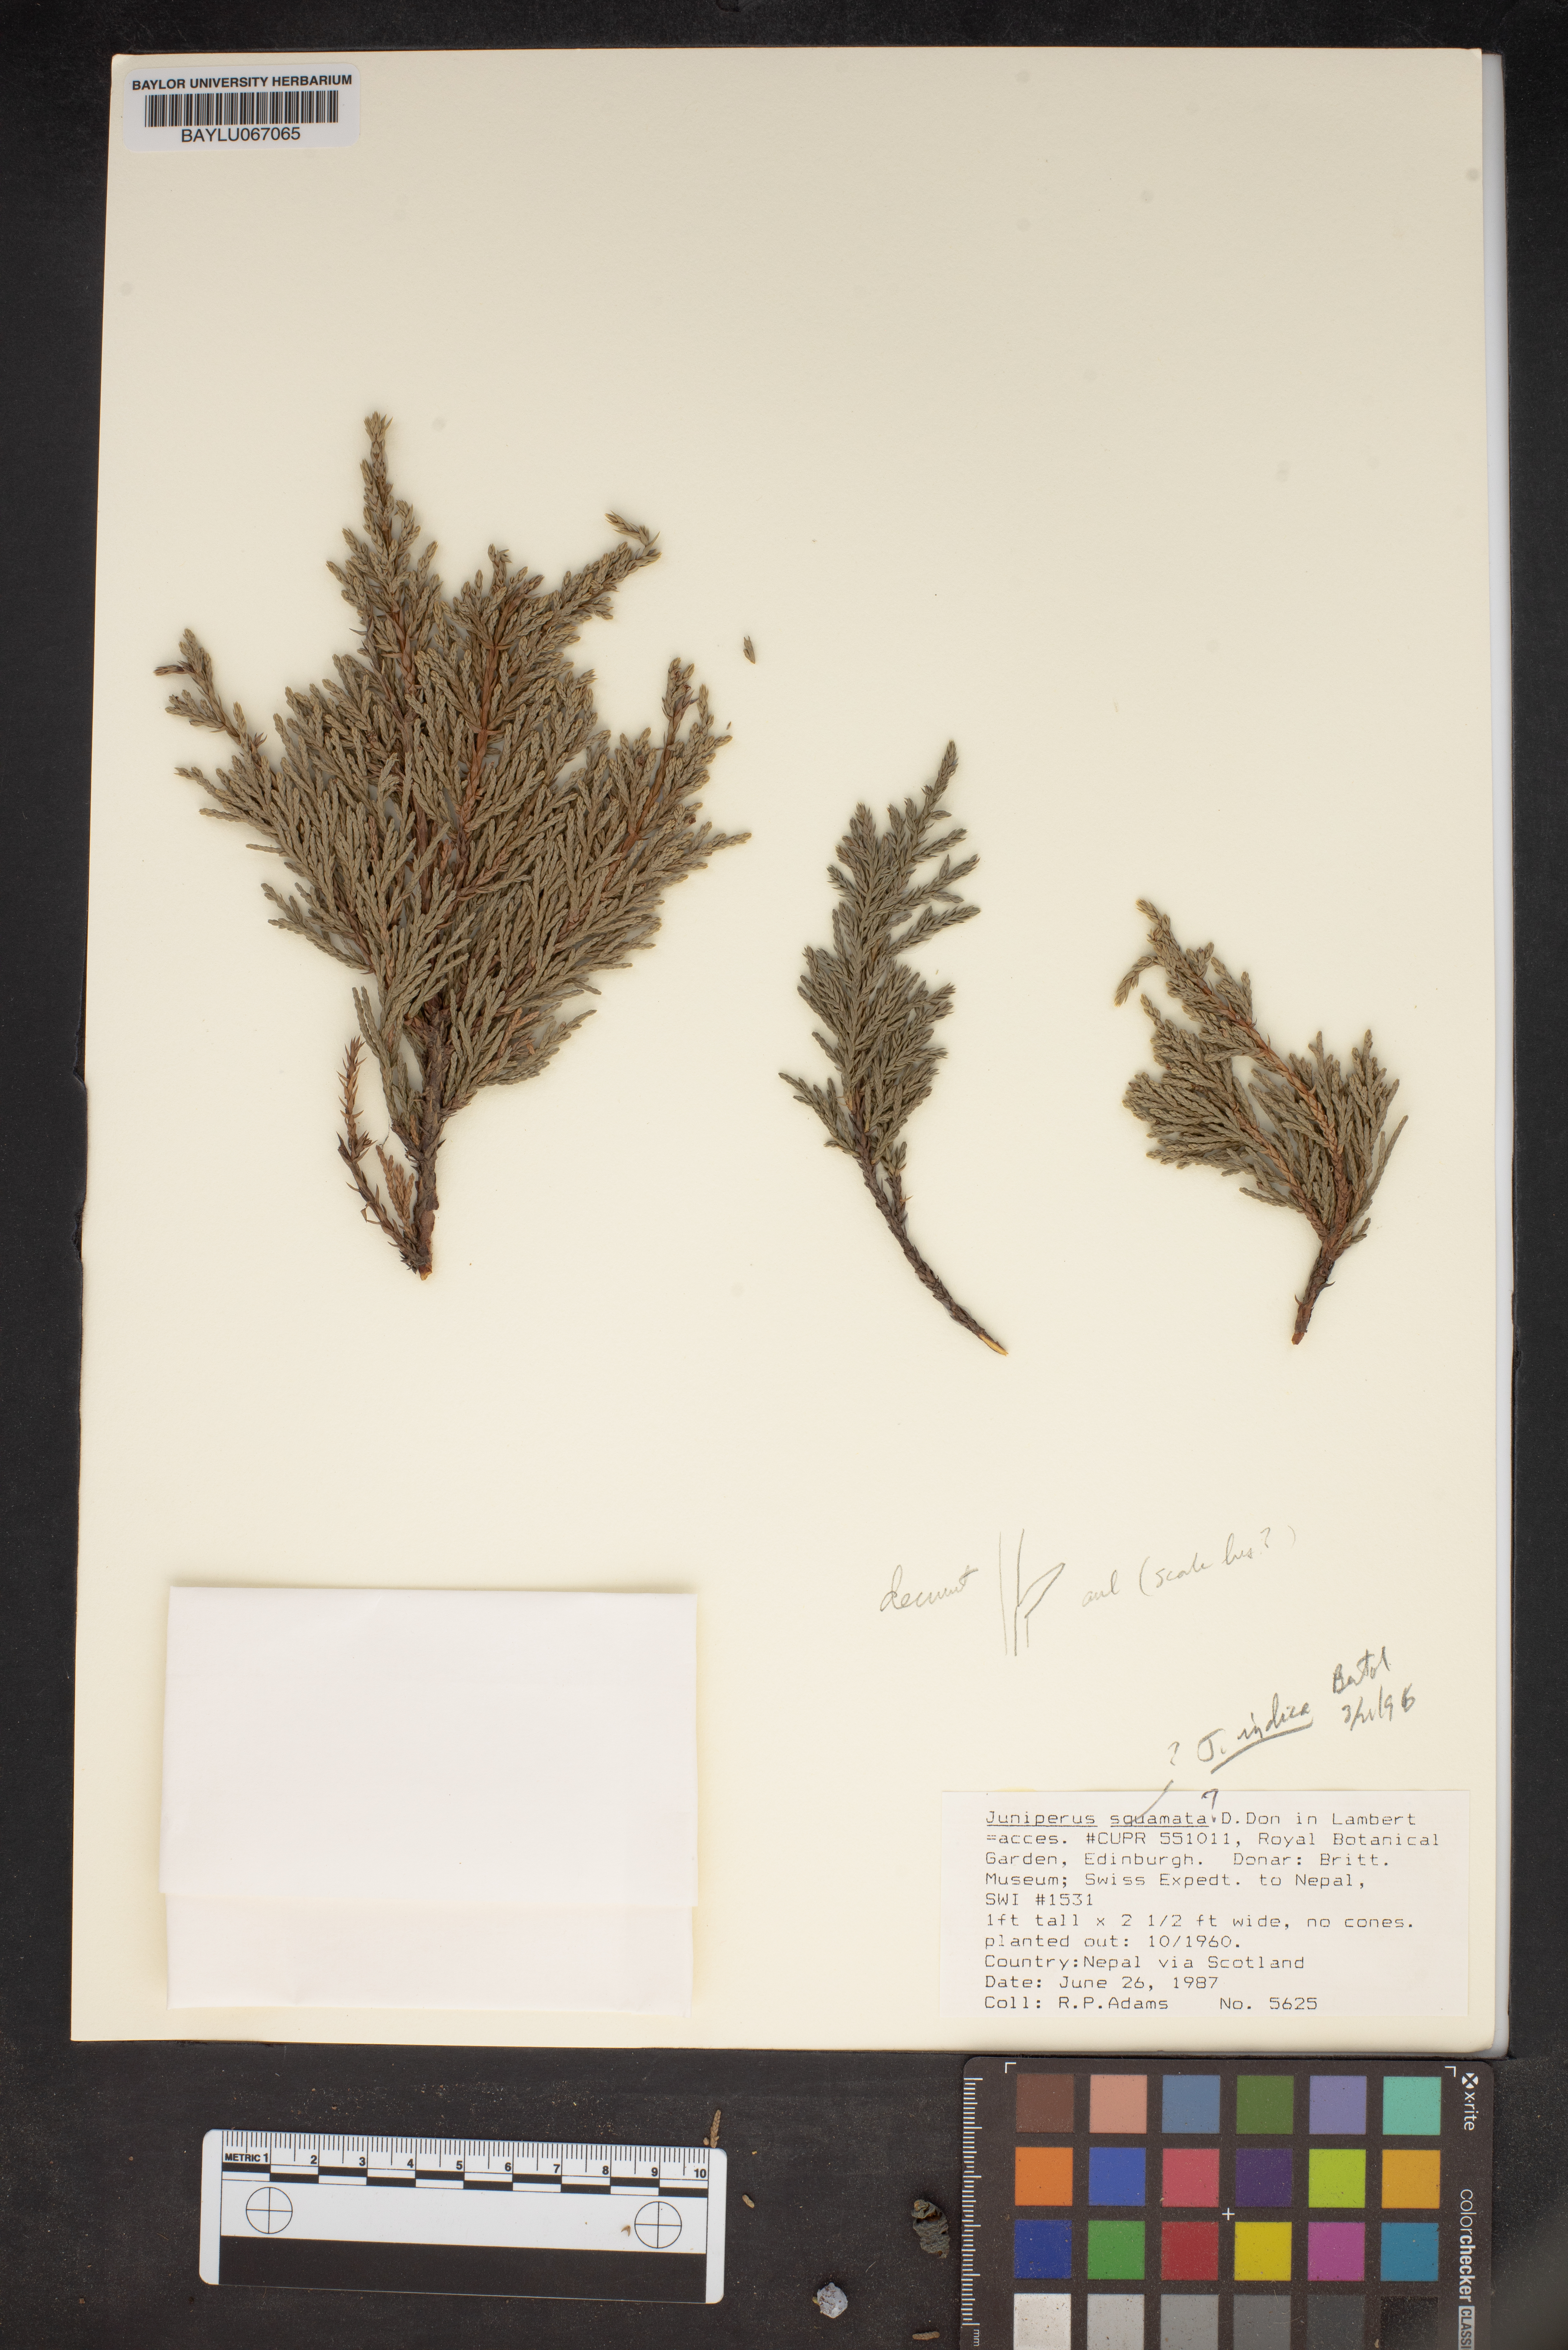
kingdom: Plantae
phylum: Tracheophyta
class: Pinopsida
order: Pinales
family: Cupressaceae
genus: Juniperus
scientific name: Juniperus squamata
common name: Flaky juniper
